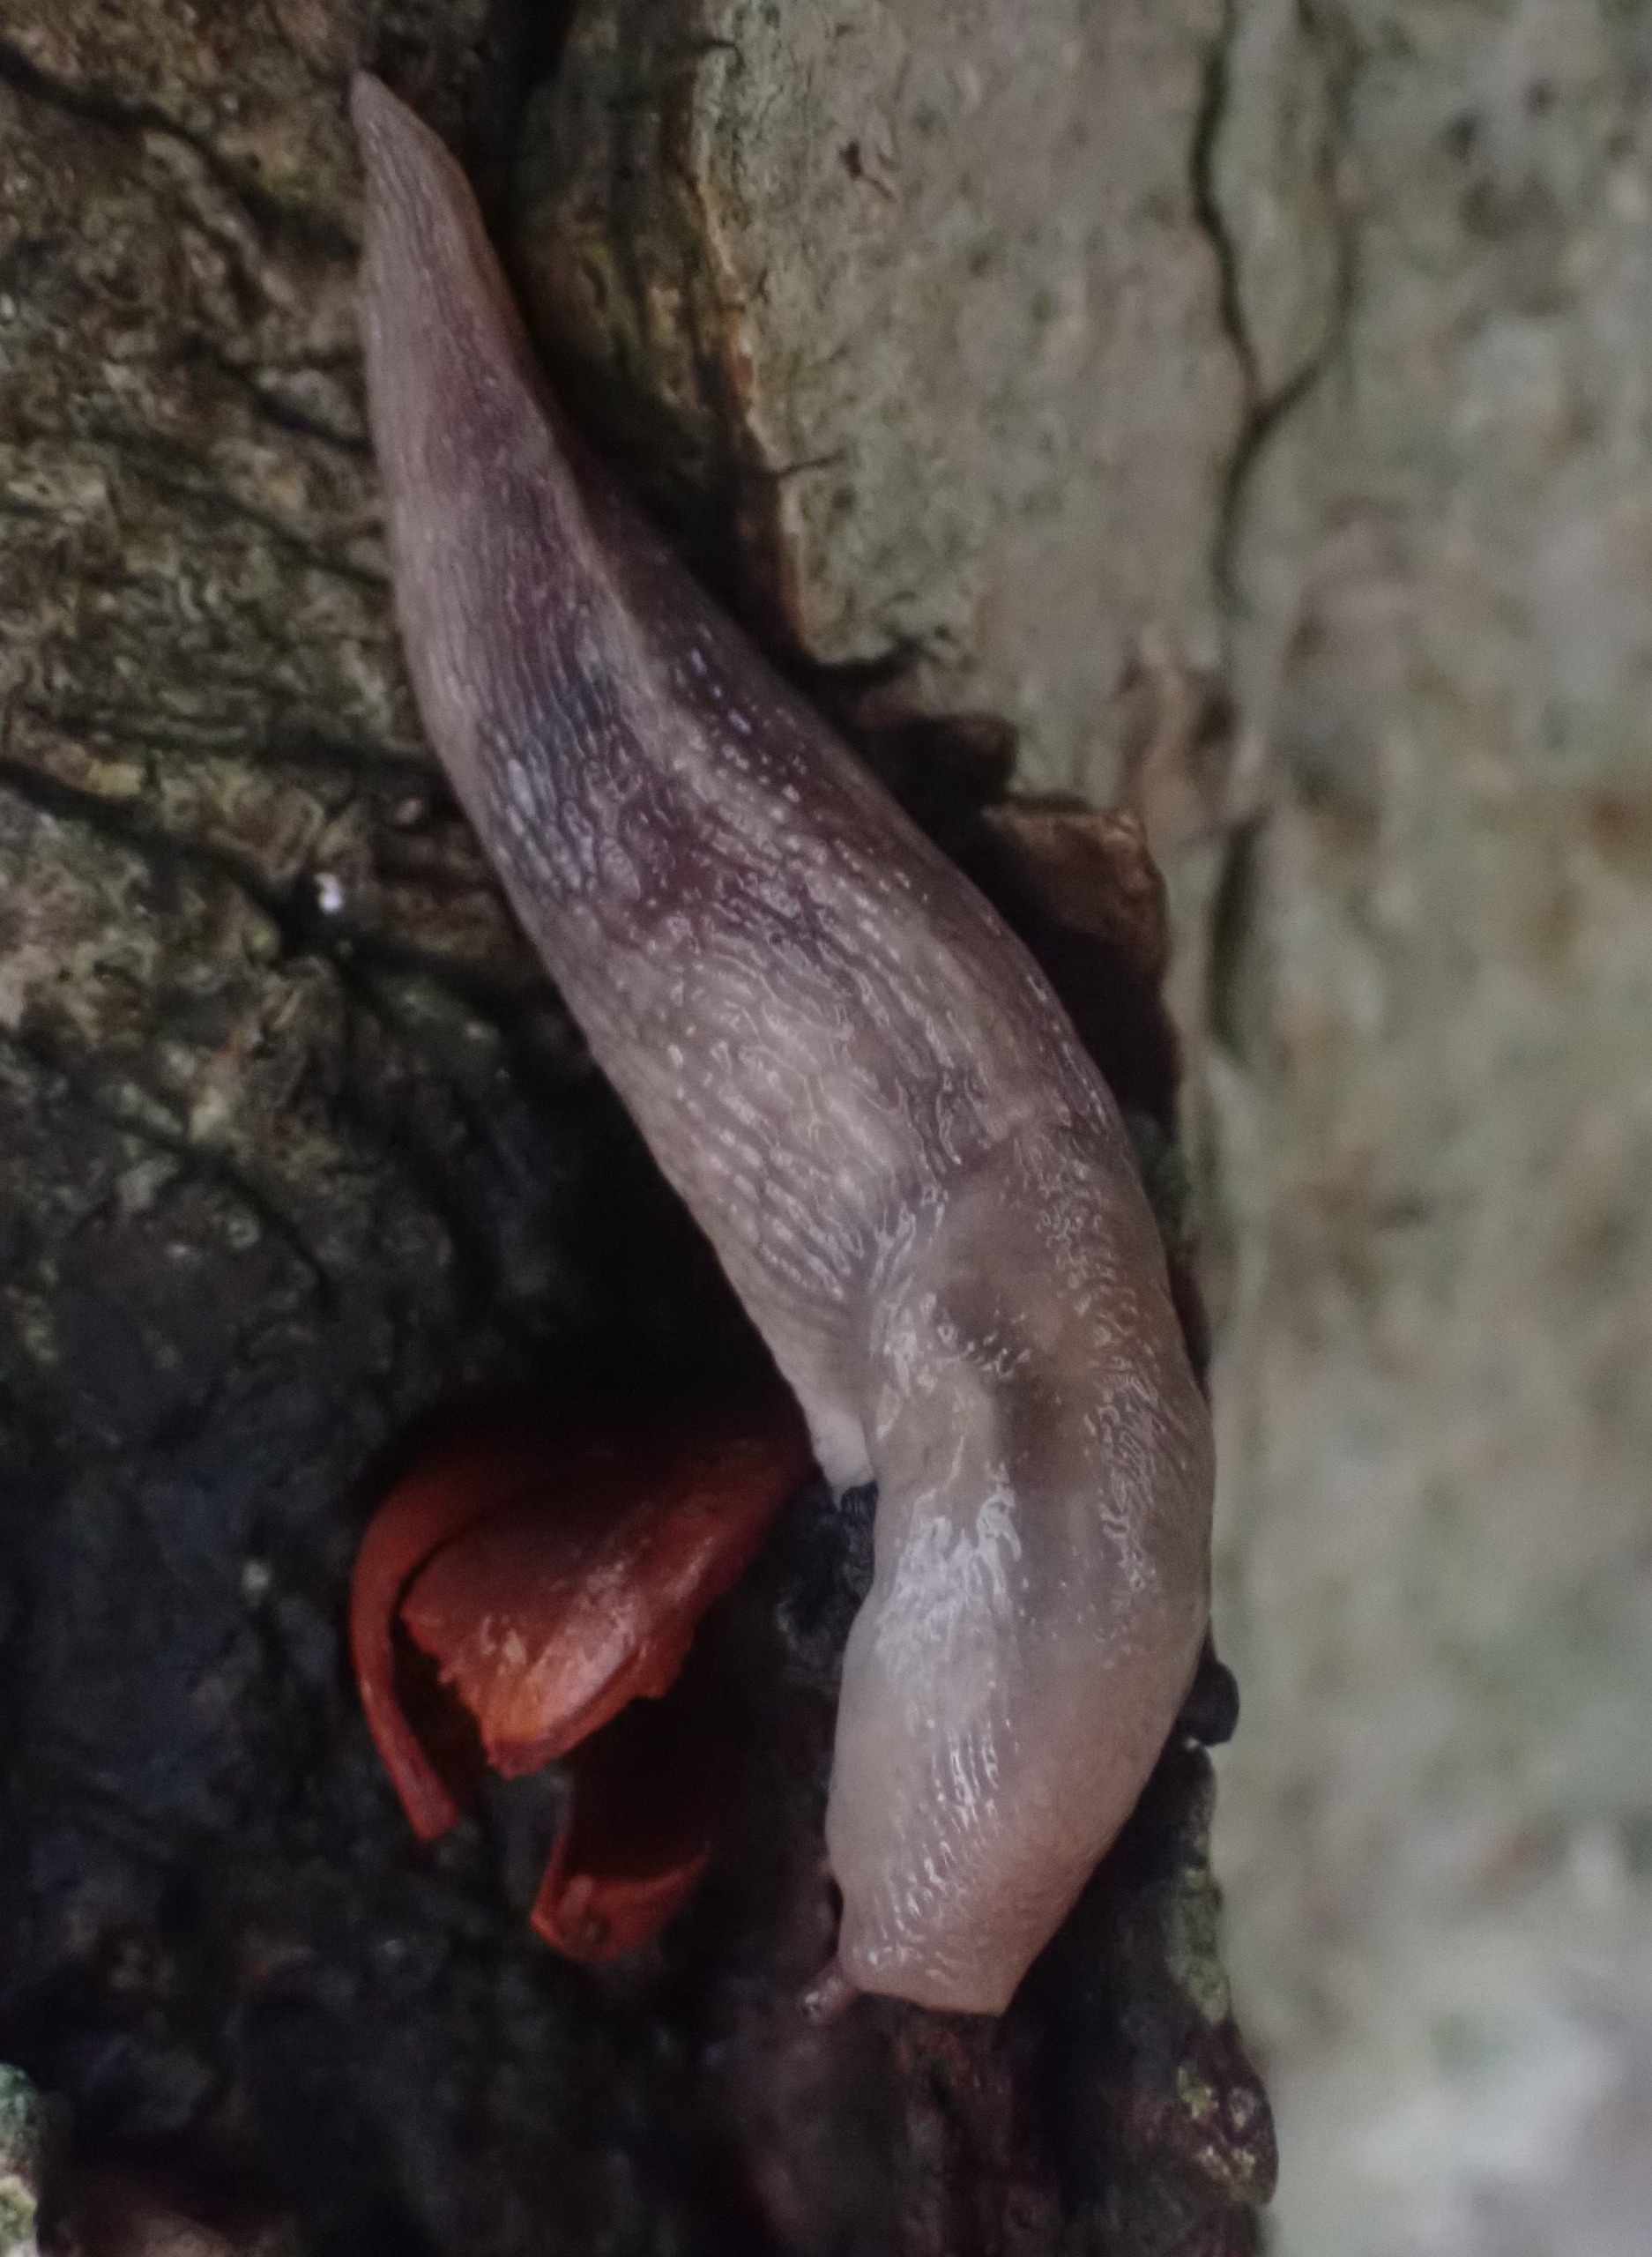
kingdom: Animalia
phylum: Mollusca
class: Gastropoda
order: Stylommatophora
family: Limacidae
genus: Lehmannia
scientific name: Lehmannia marginata
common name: Bøgesnegl
